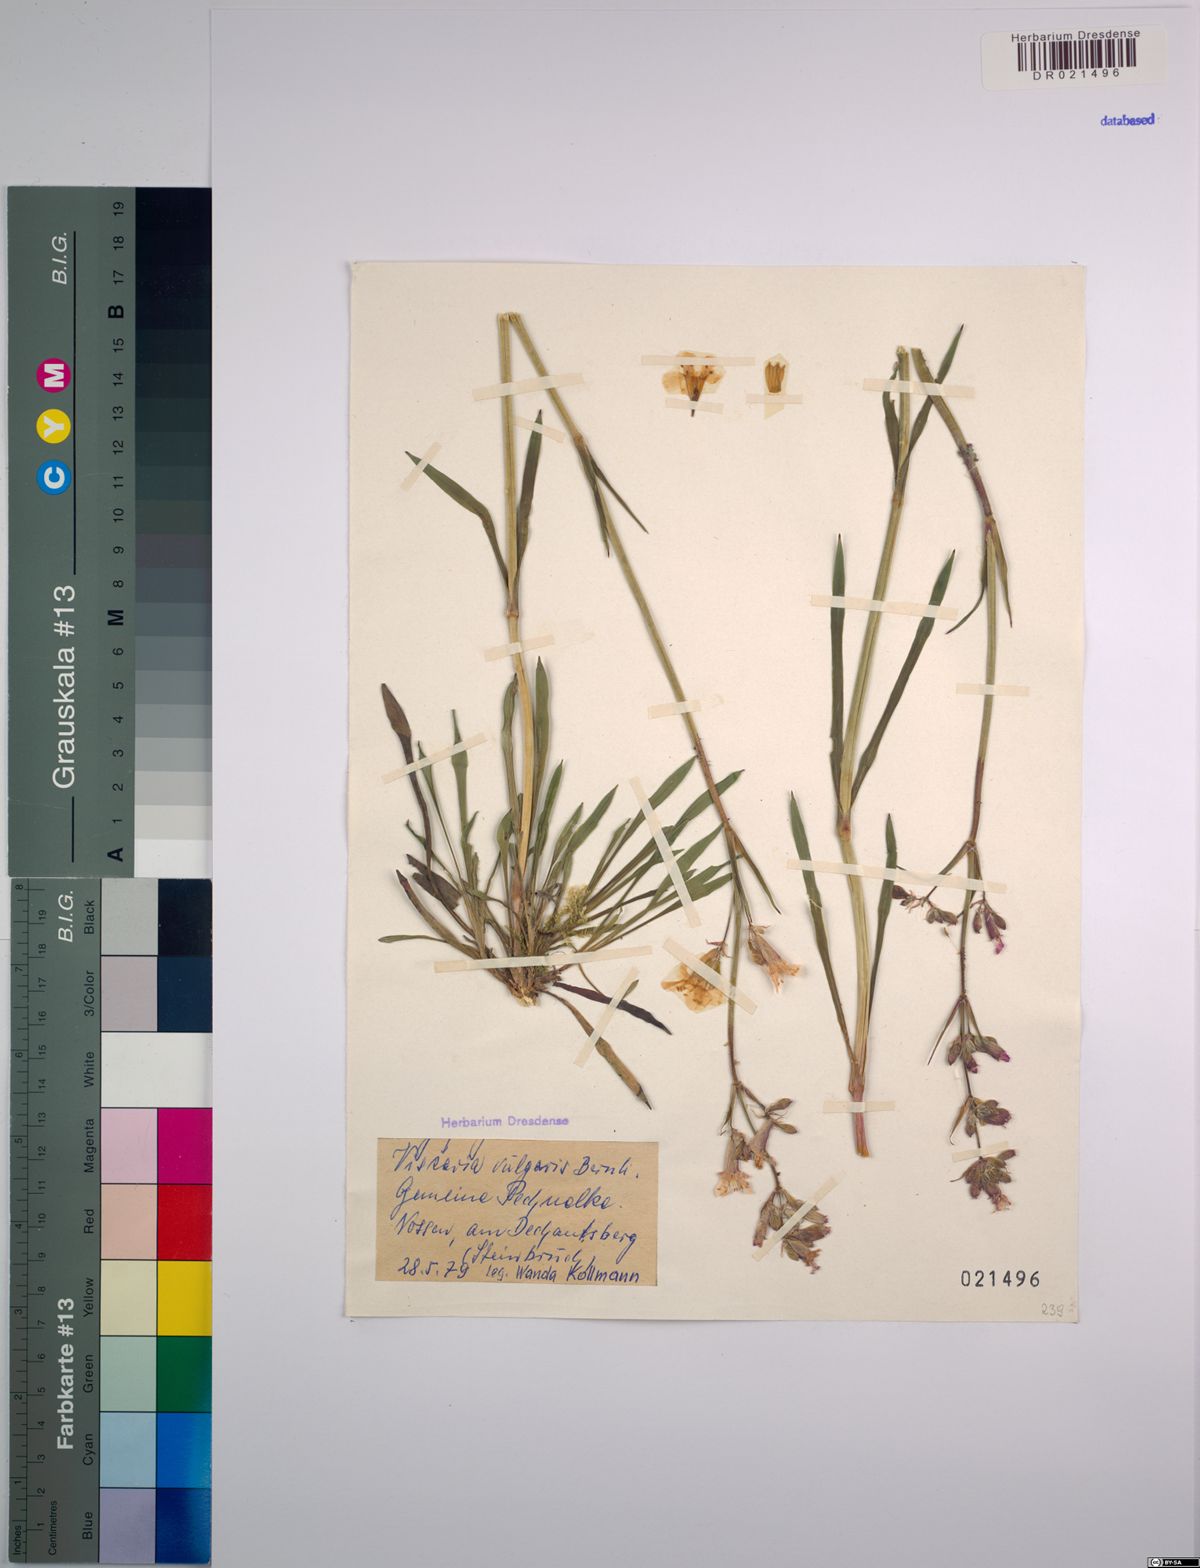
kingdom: Plantae
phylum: Tracheophyta
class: Magnoliopsida
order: Caryophyllales
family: Caryophyllaceae
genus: Viscaria
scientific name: Viscaria vulgaris
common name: Clammy campion
